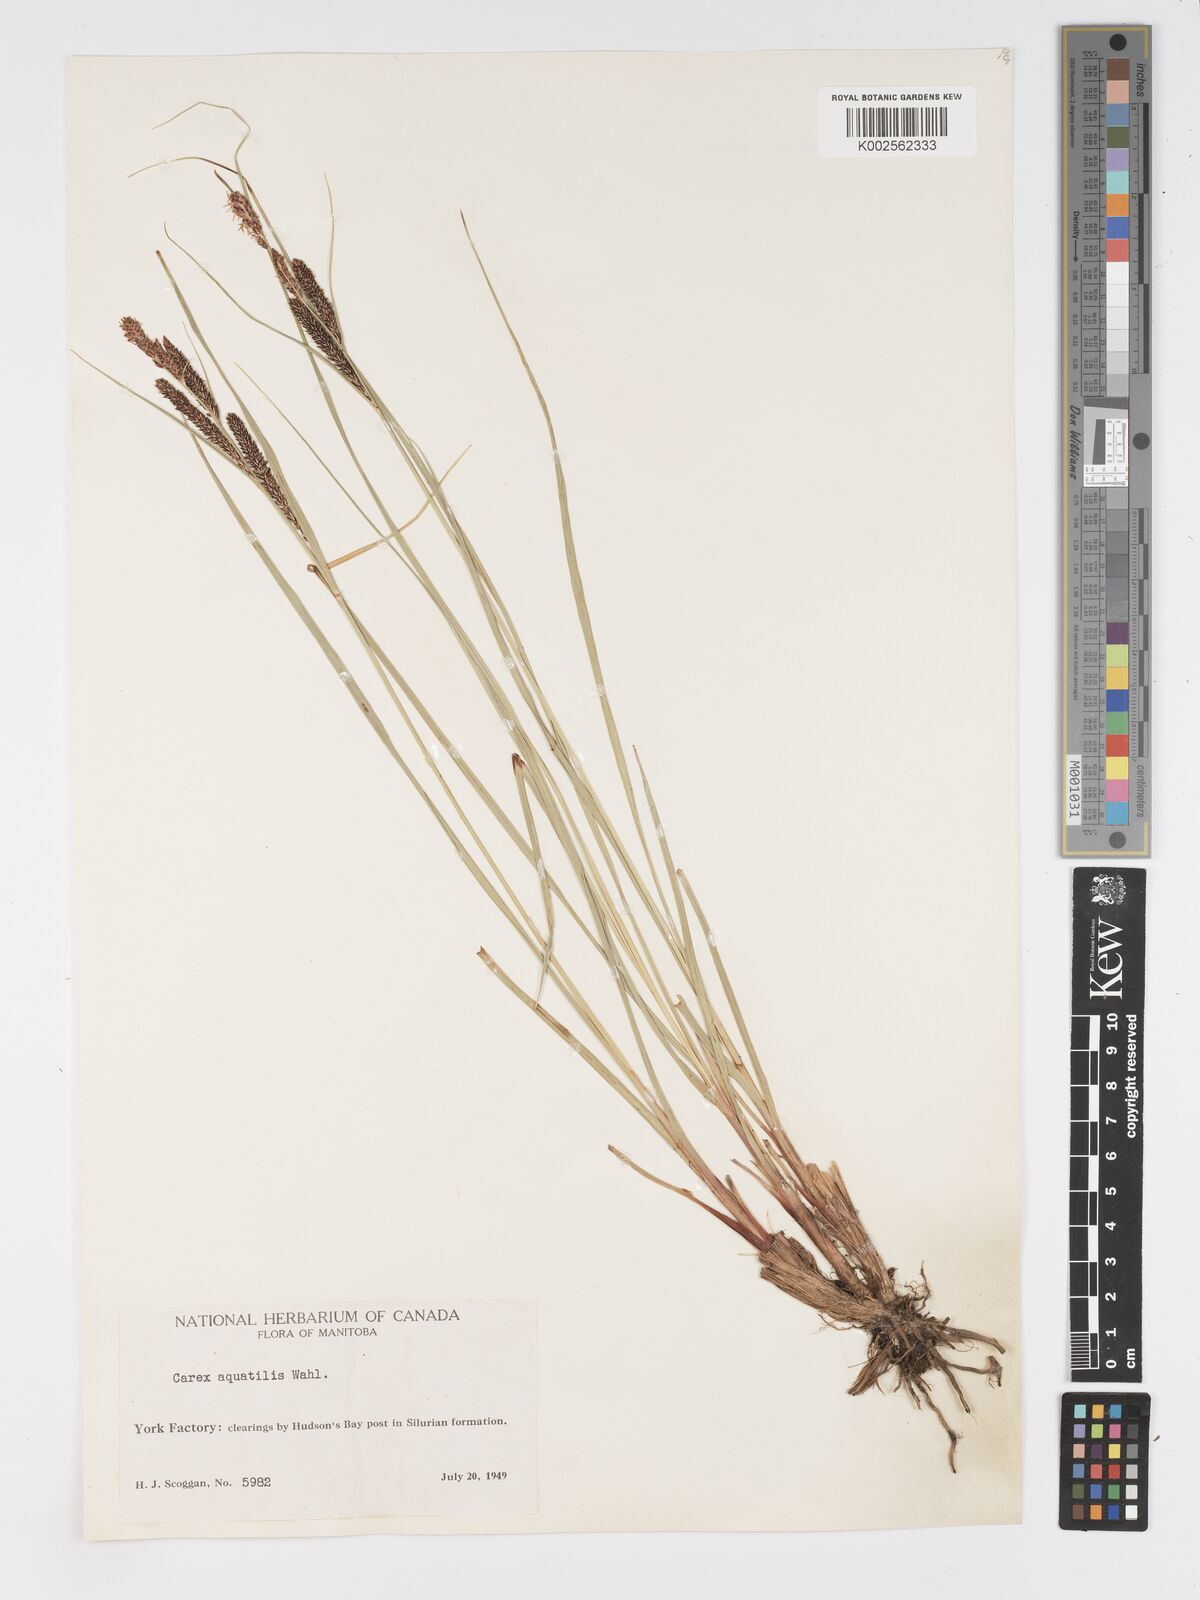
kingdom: Plantae
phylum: Tracheophyta
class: Liliopsida
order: Poales
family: Cyperaceae
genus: Carex
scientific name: Carex aquatilis
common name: Water sedge
